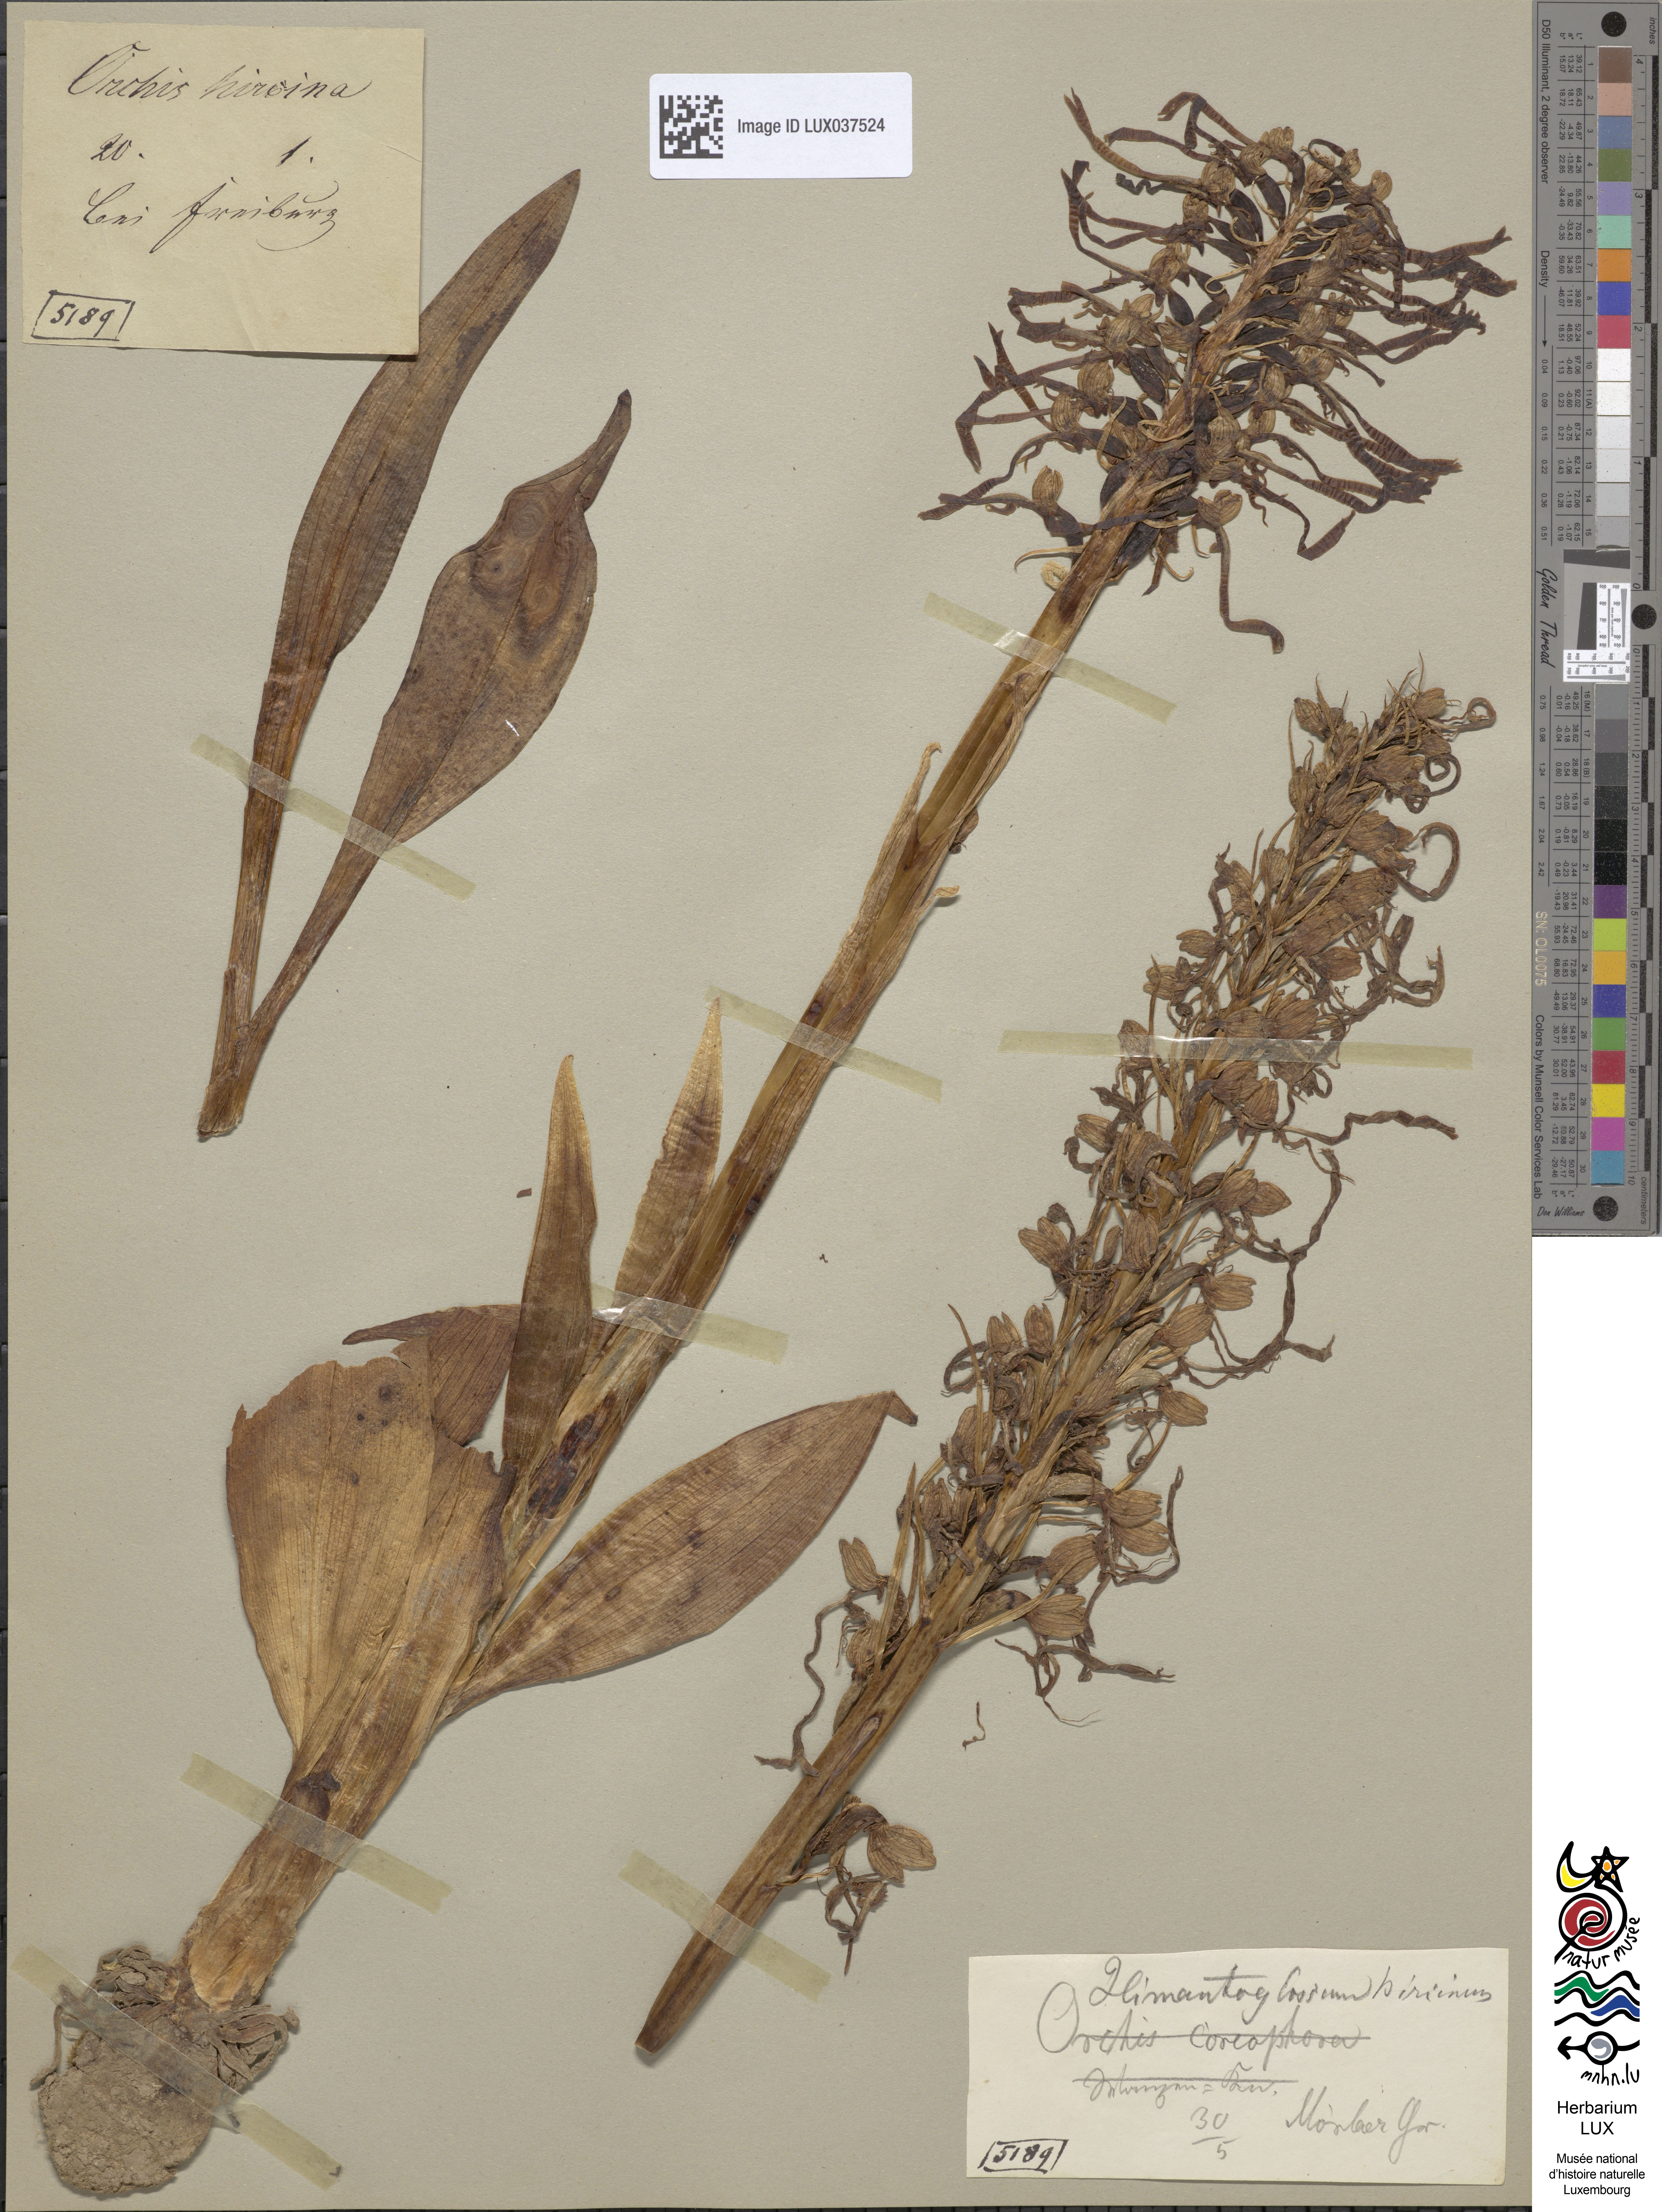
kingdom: Plantae
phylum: Tracheophyta
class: Liliopsida
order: Asparagales
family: Orchidaceae
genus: Himantoglossum
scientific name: Himantoglossum hircinum
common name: Lizard orchid
